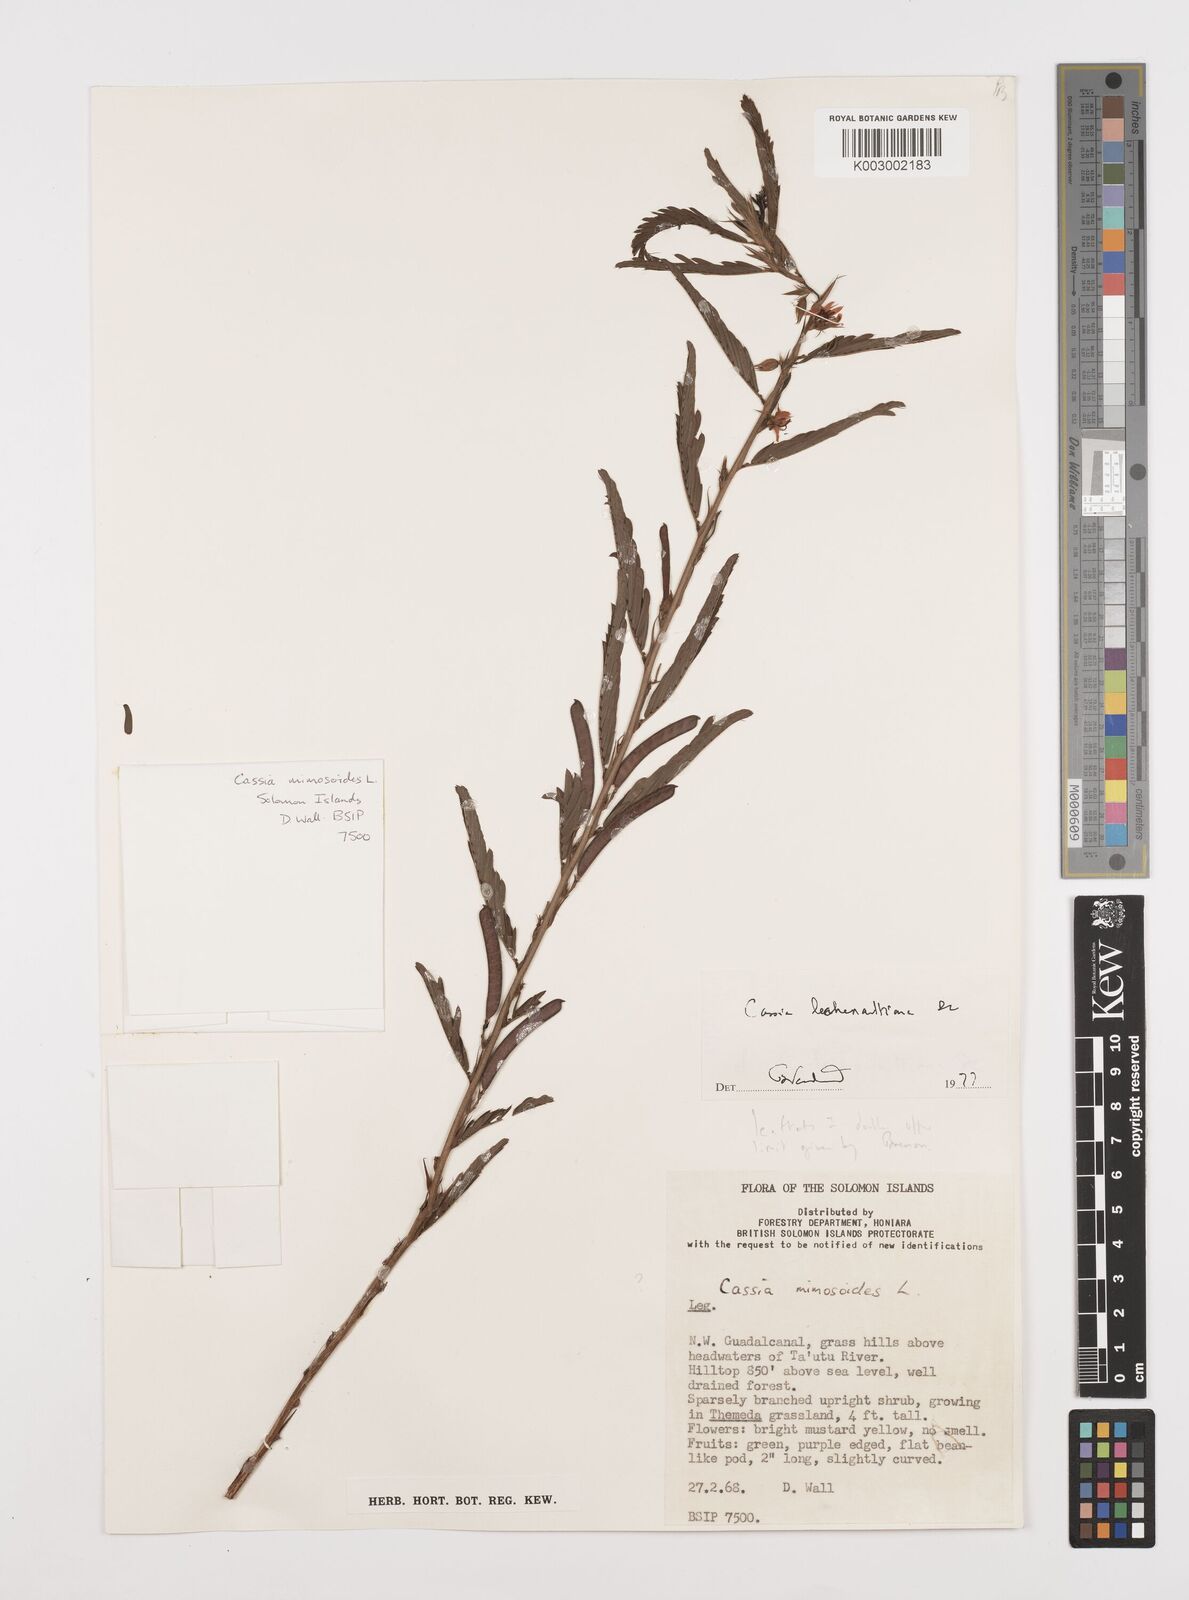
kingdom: Plantae
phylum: Tracheophyta
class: Magnoliopsida
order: Fabales
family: Fabaceae
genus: Cassia
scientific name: Cassia
